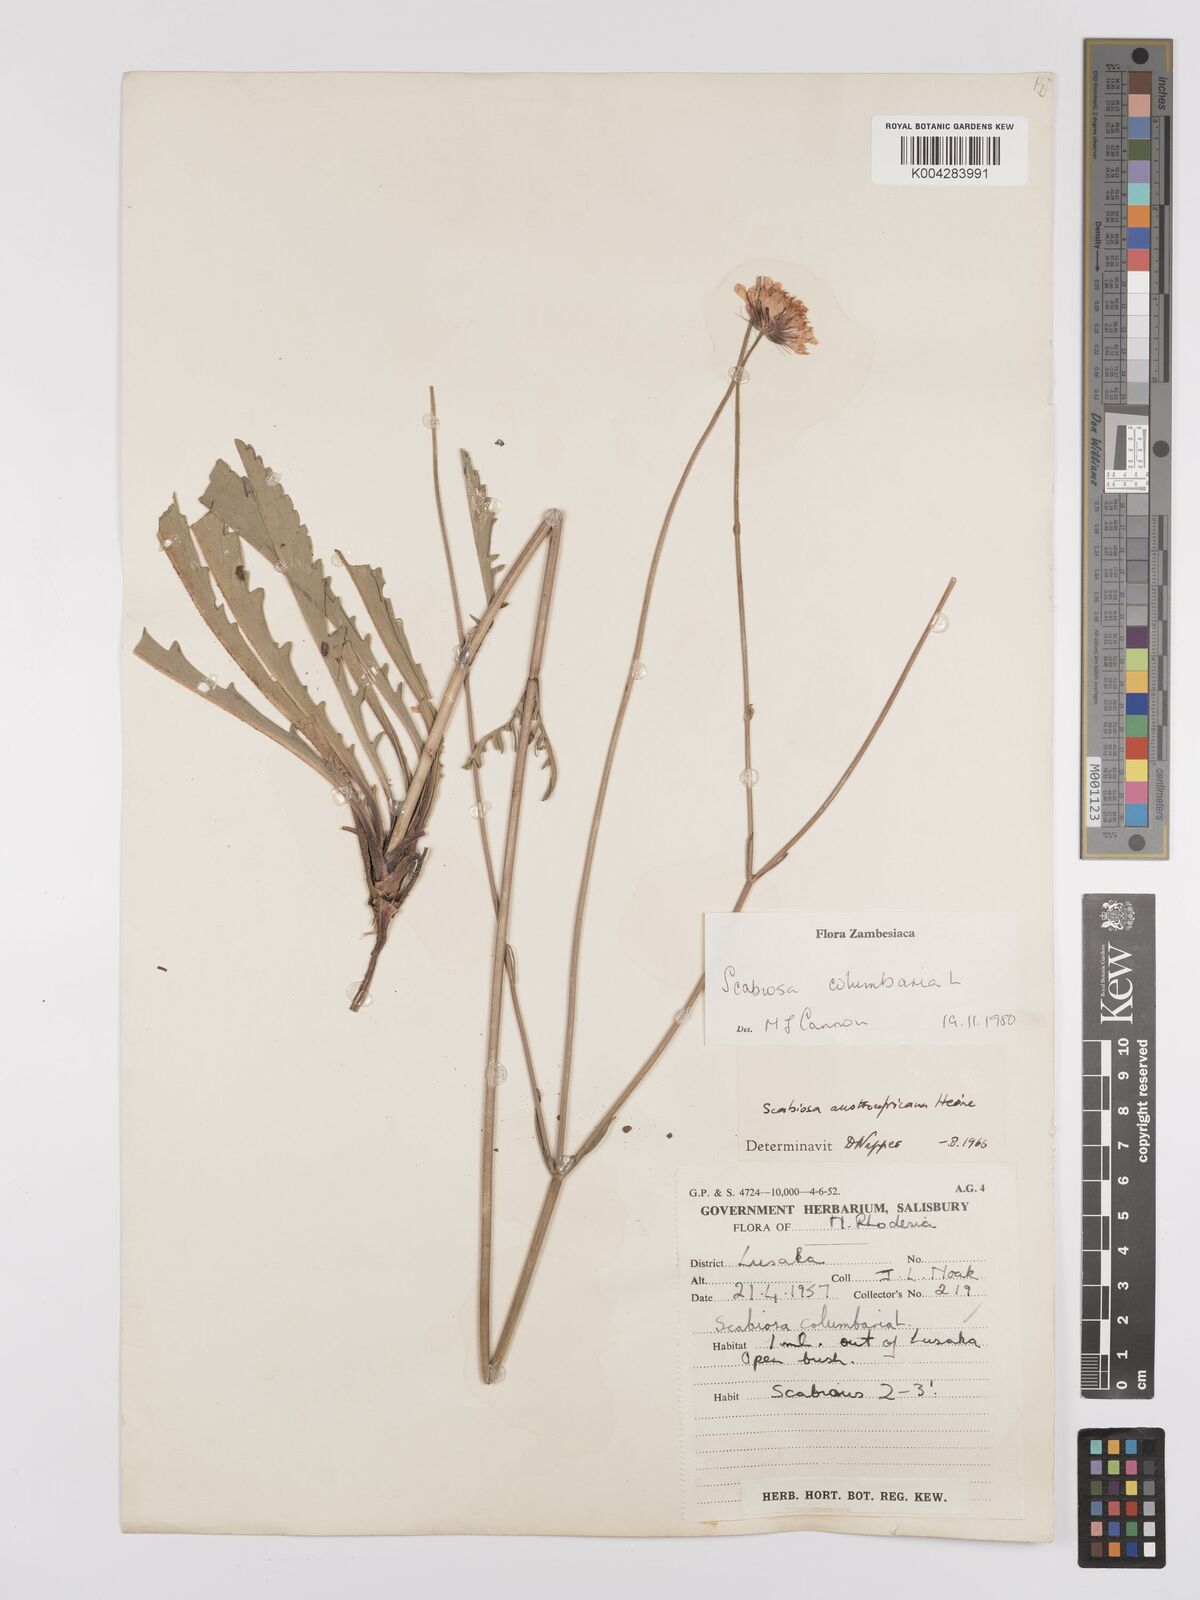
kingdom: Plantae
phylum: Tracheophyta
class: Magnoliopsida
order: Dipsacales
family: Caprifoliaceae
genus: Scabiosa
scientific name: Scabiosa austroafricana
